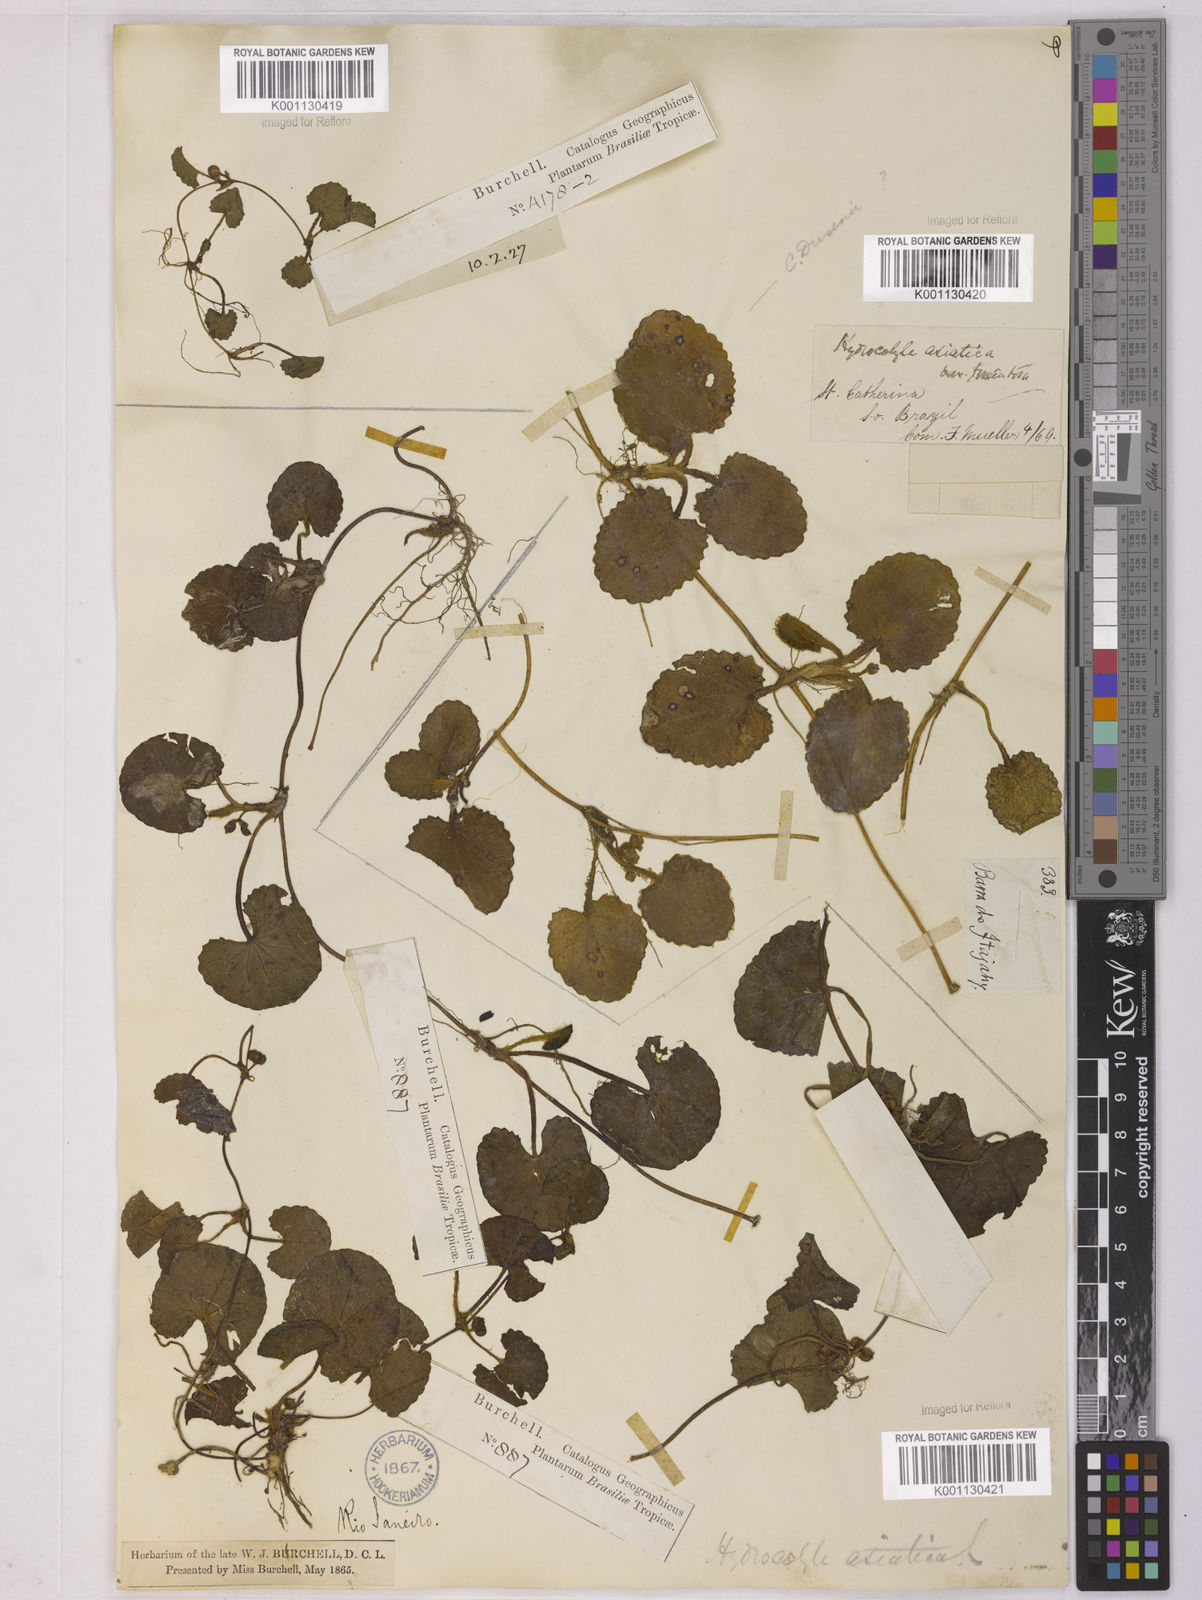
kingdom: Plantae
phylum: Tracheophyta
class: Magnoliopsida
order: Apiales
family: Apiaceae
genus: Centella
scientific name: Centella erecta
